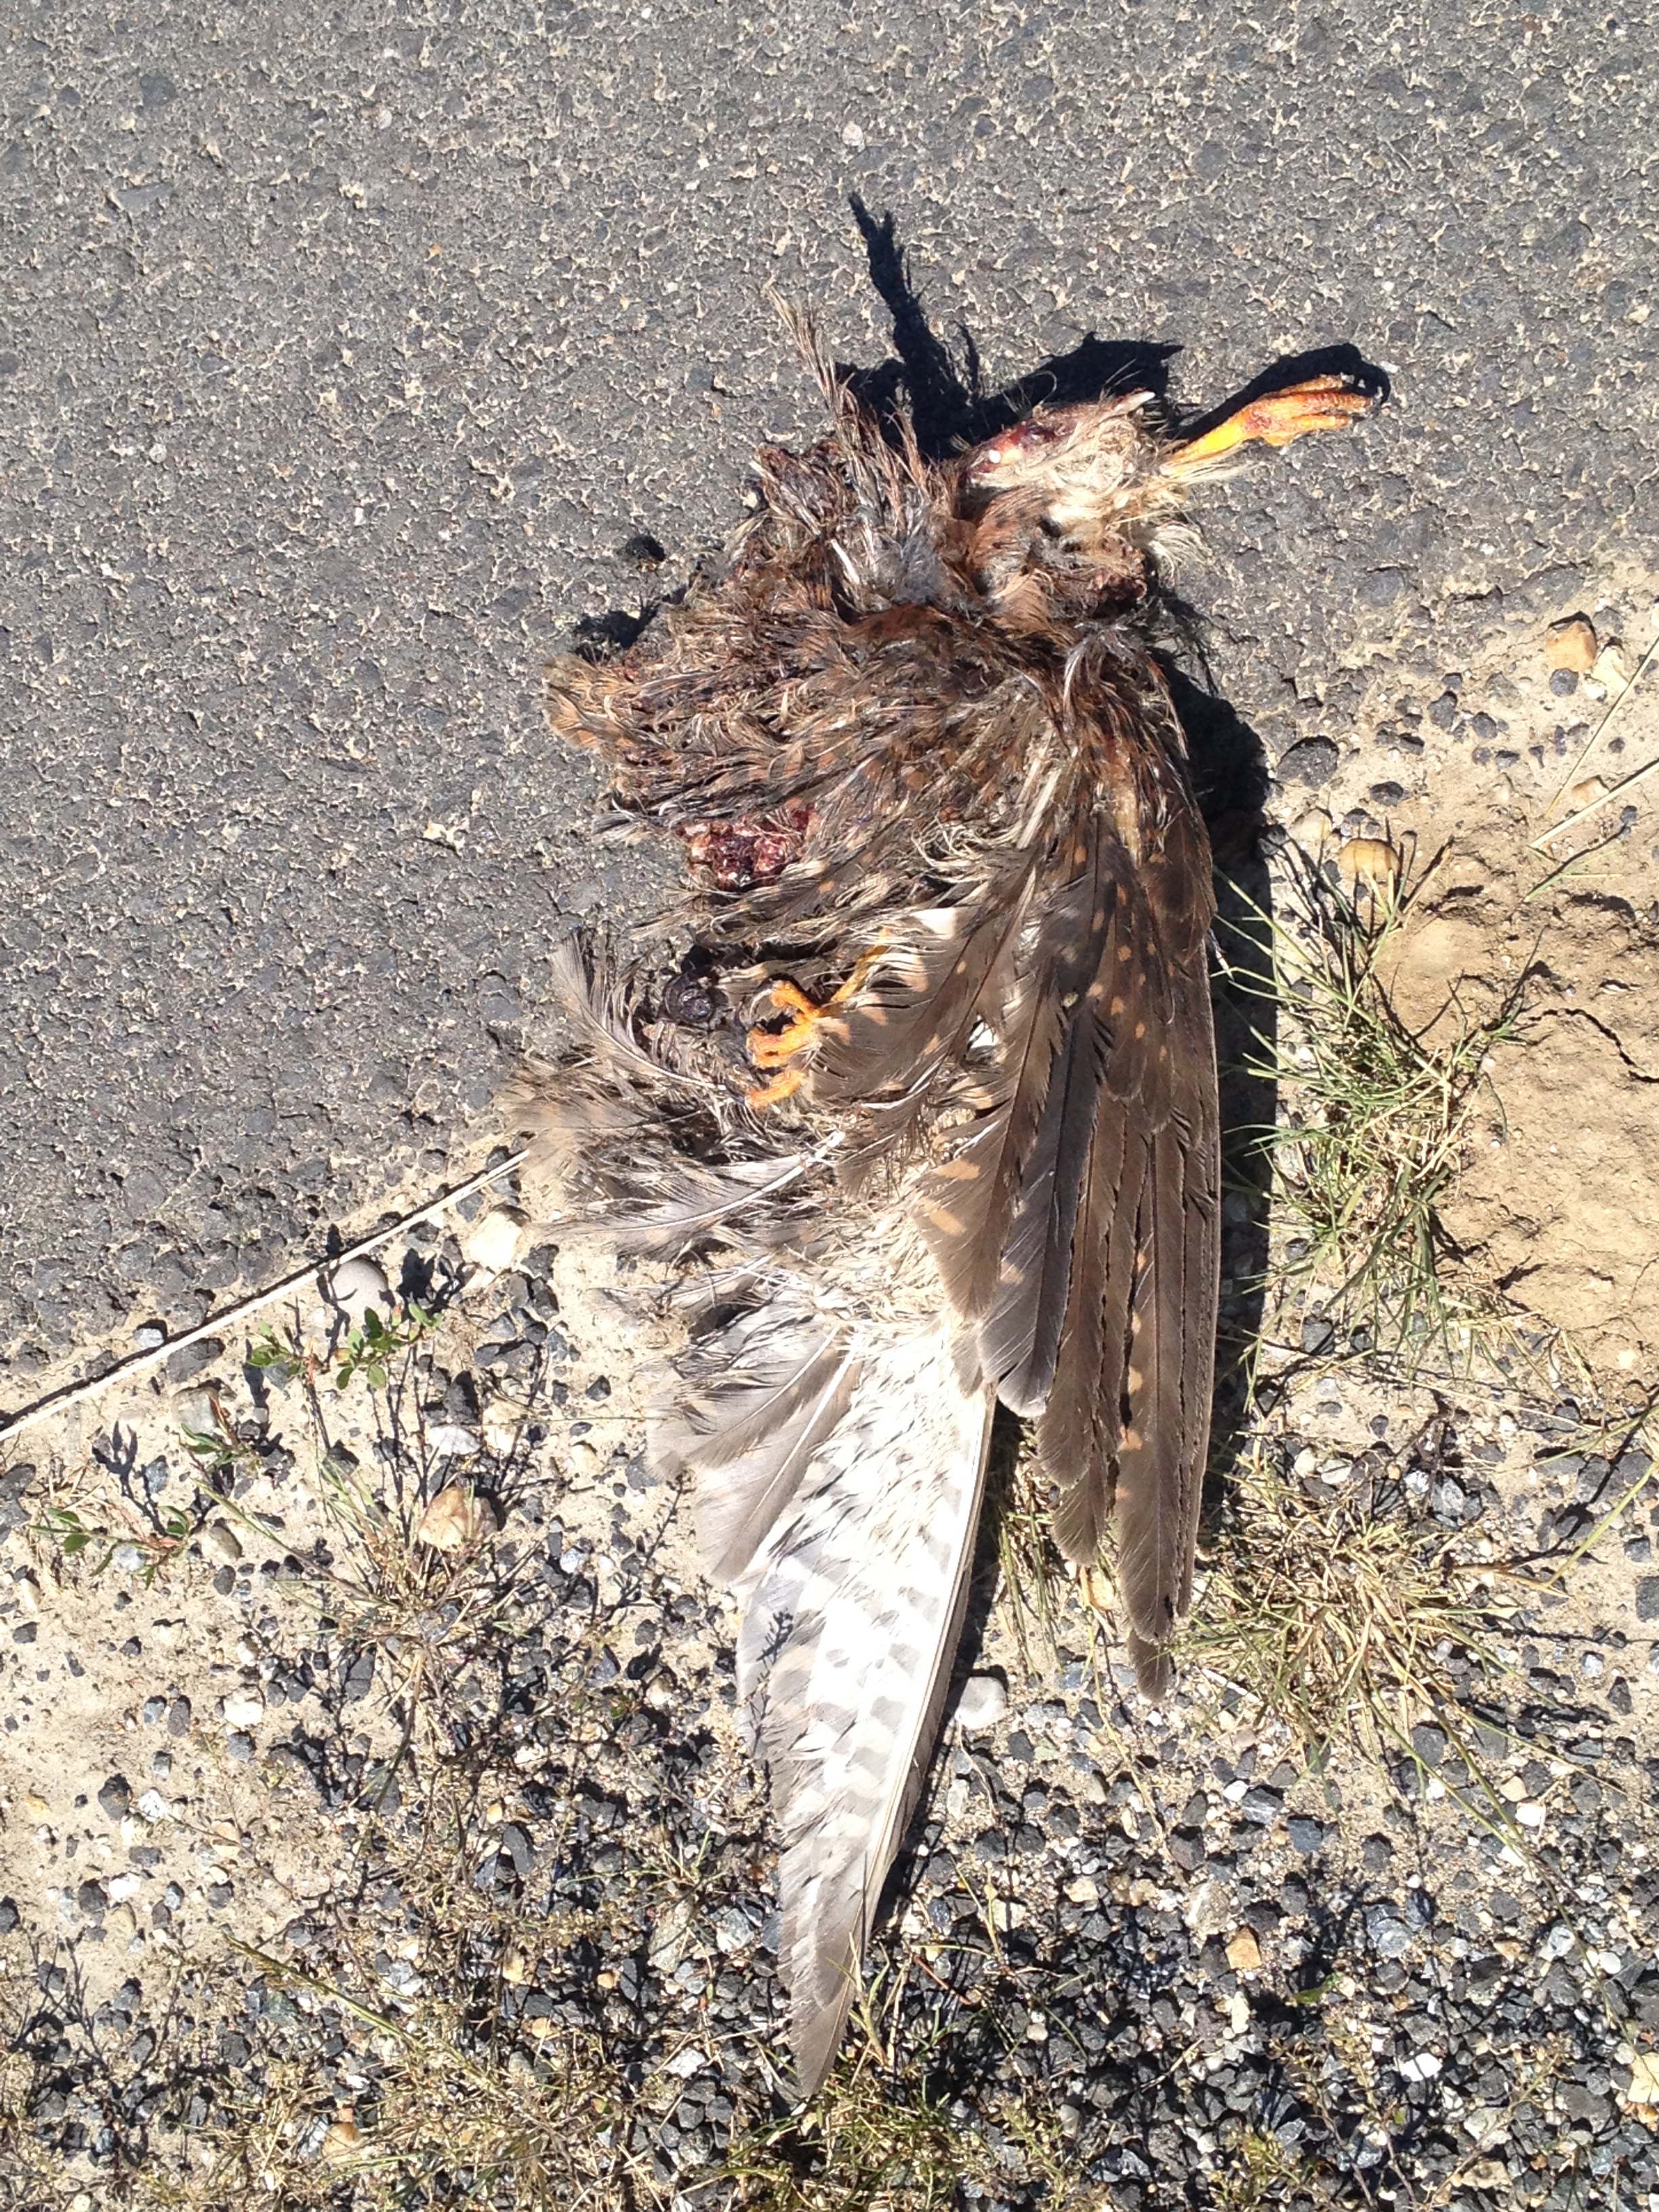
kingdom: Animalia
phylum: Chordata
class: Aves
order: Falconiformes
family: Falconidae
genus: Falco
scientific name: Falco tinnunculus
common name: Common kestrel
